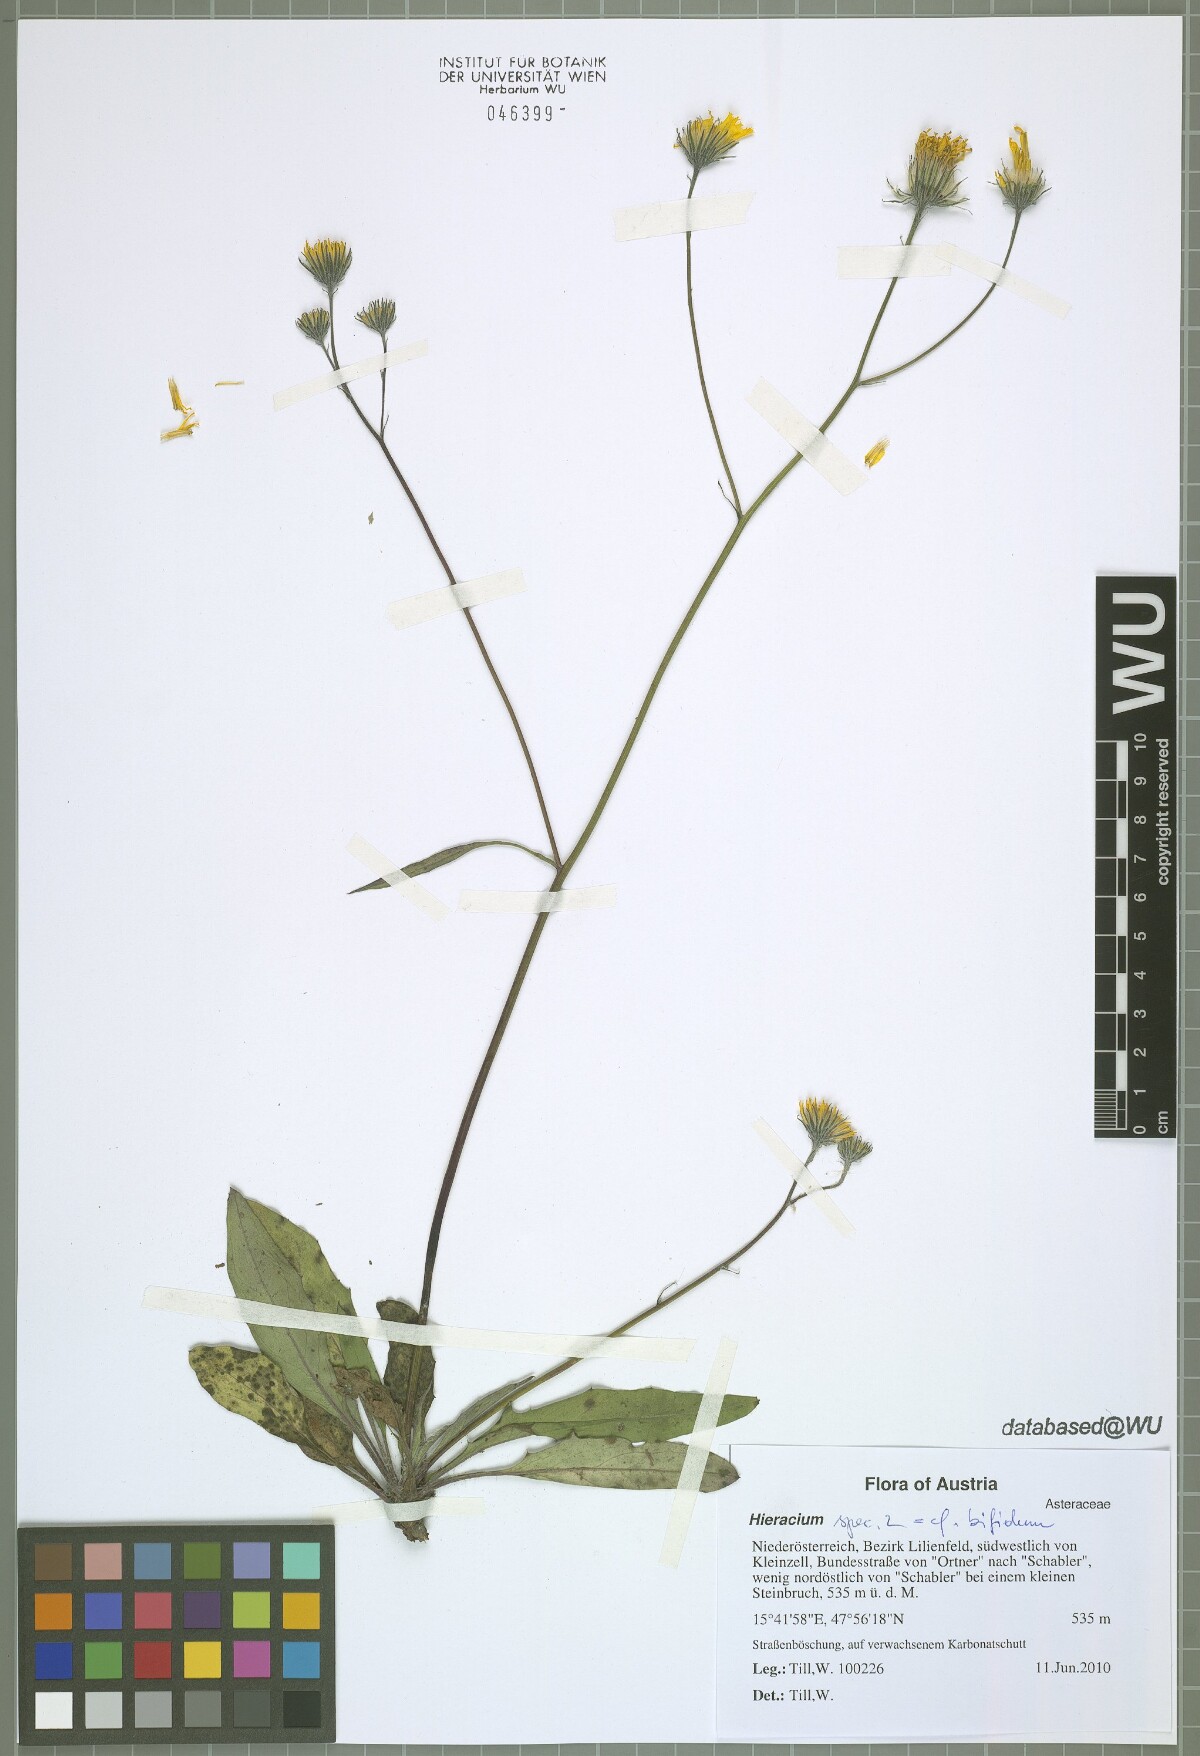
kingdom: Plantae
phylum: Tracheophyta
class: Magnoliopsida
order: Asterales
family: Asteraceae
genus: Hieracium
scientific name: Hieracium oxyodon
